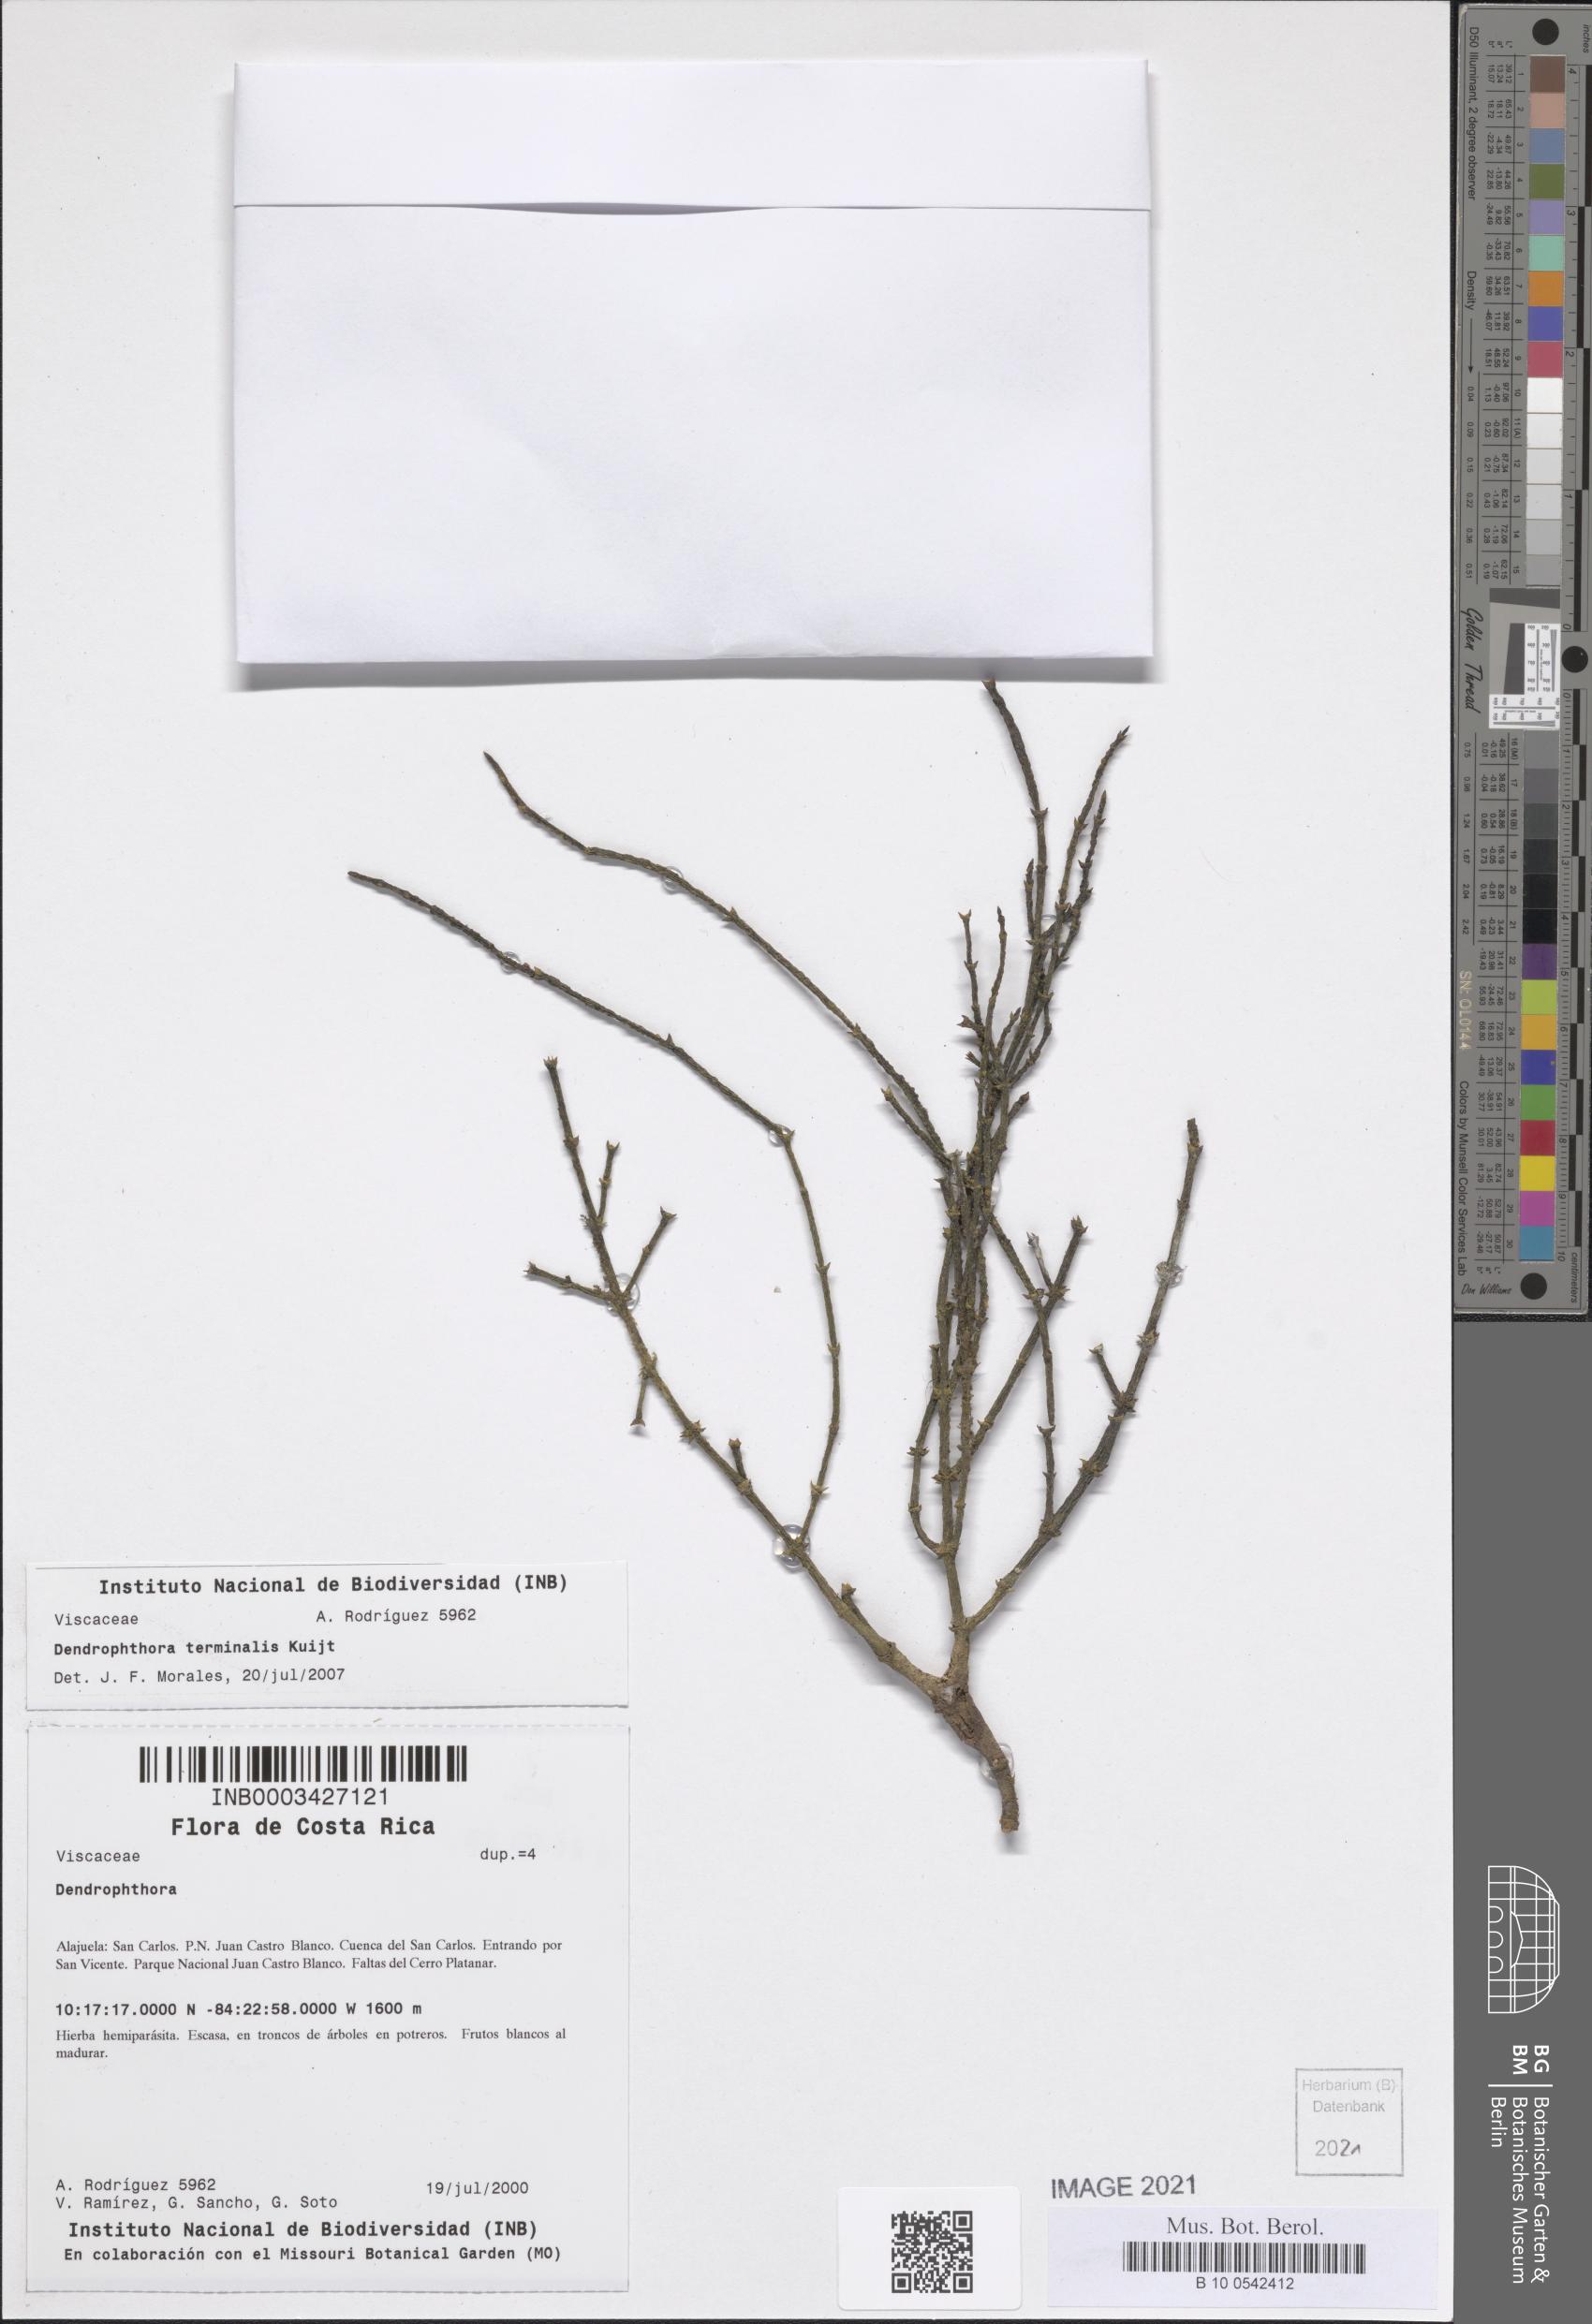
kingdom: Plantae
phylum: Tracheophyta
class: Magnoliopsida
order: Santalales
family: Viscaceae
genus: Phoradendron
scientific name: Phoradendron terminale
